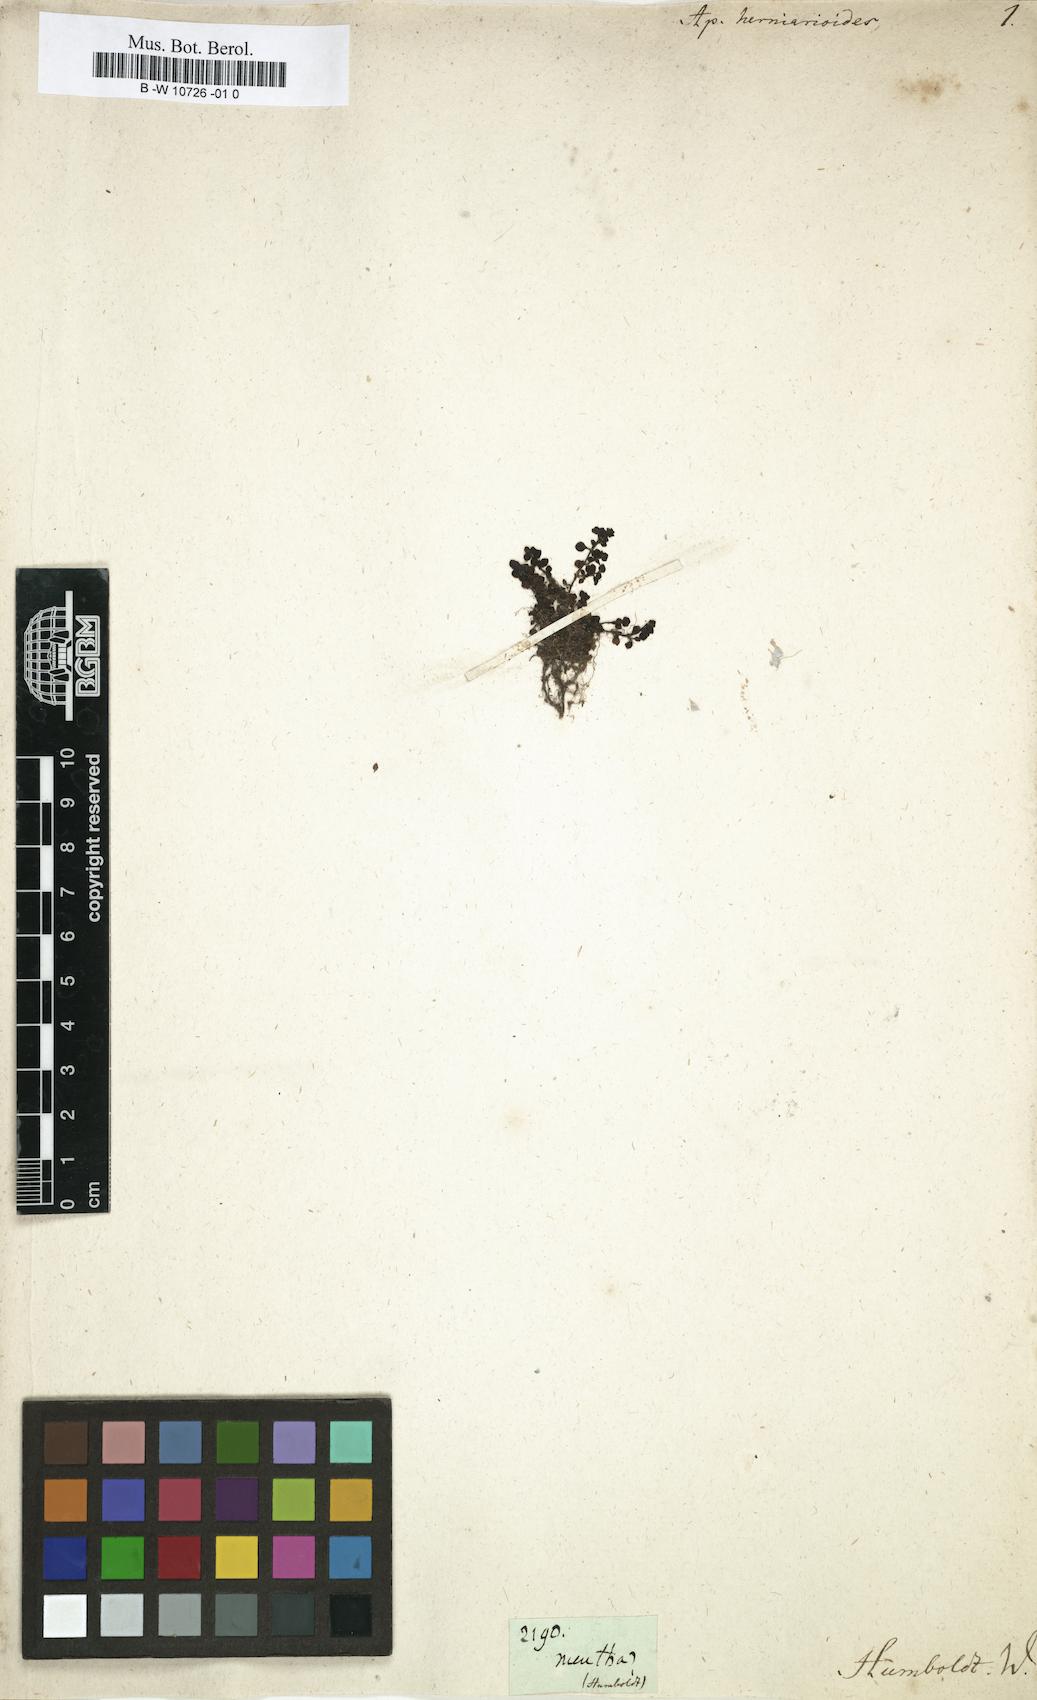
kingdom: Plantae
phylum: Tracheophyta
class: Magnoliopsida
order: Lamiales
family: Plantaginaceae
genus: Mecardonia
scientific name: Mecardonia procumbens
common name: Baby jump-up
